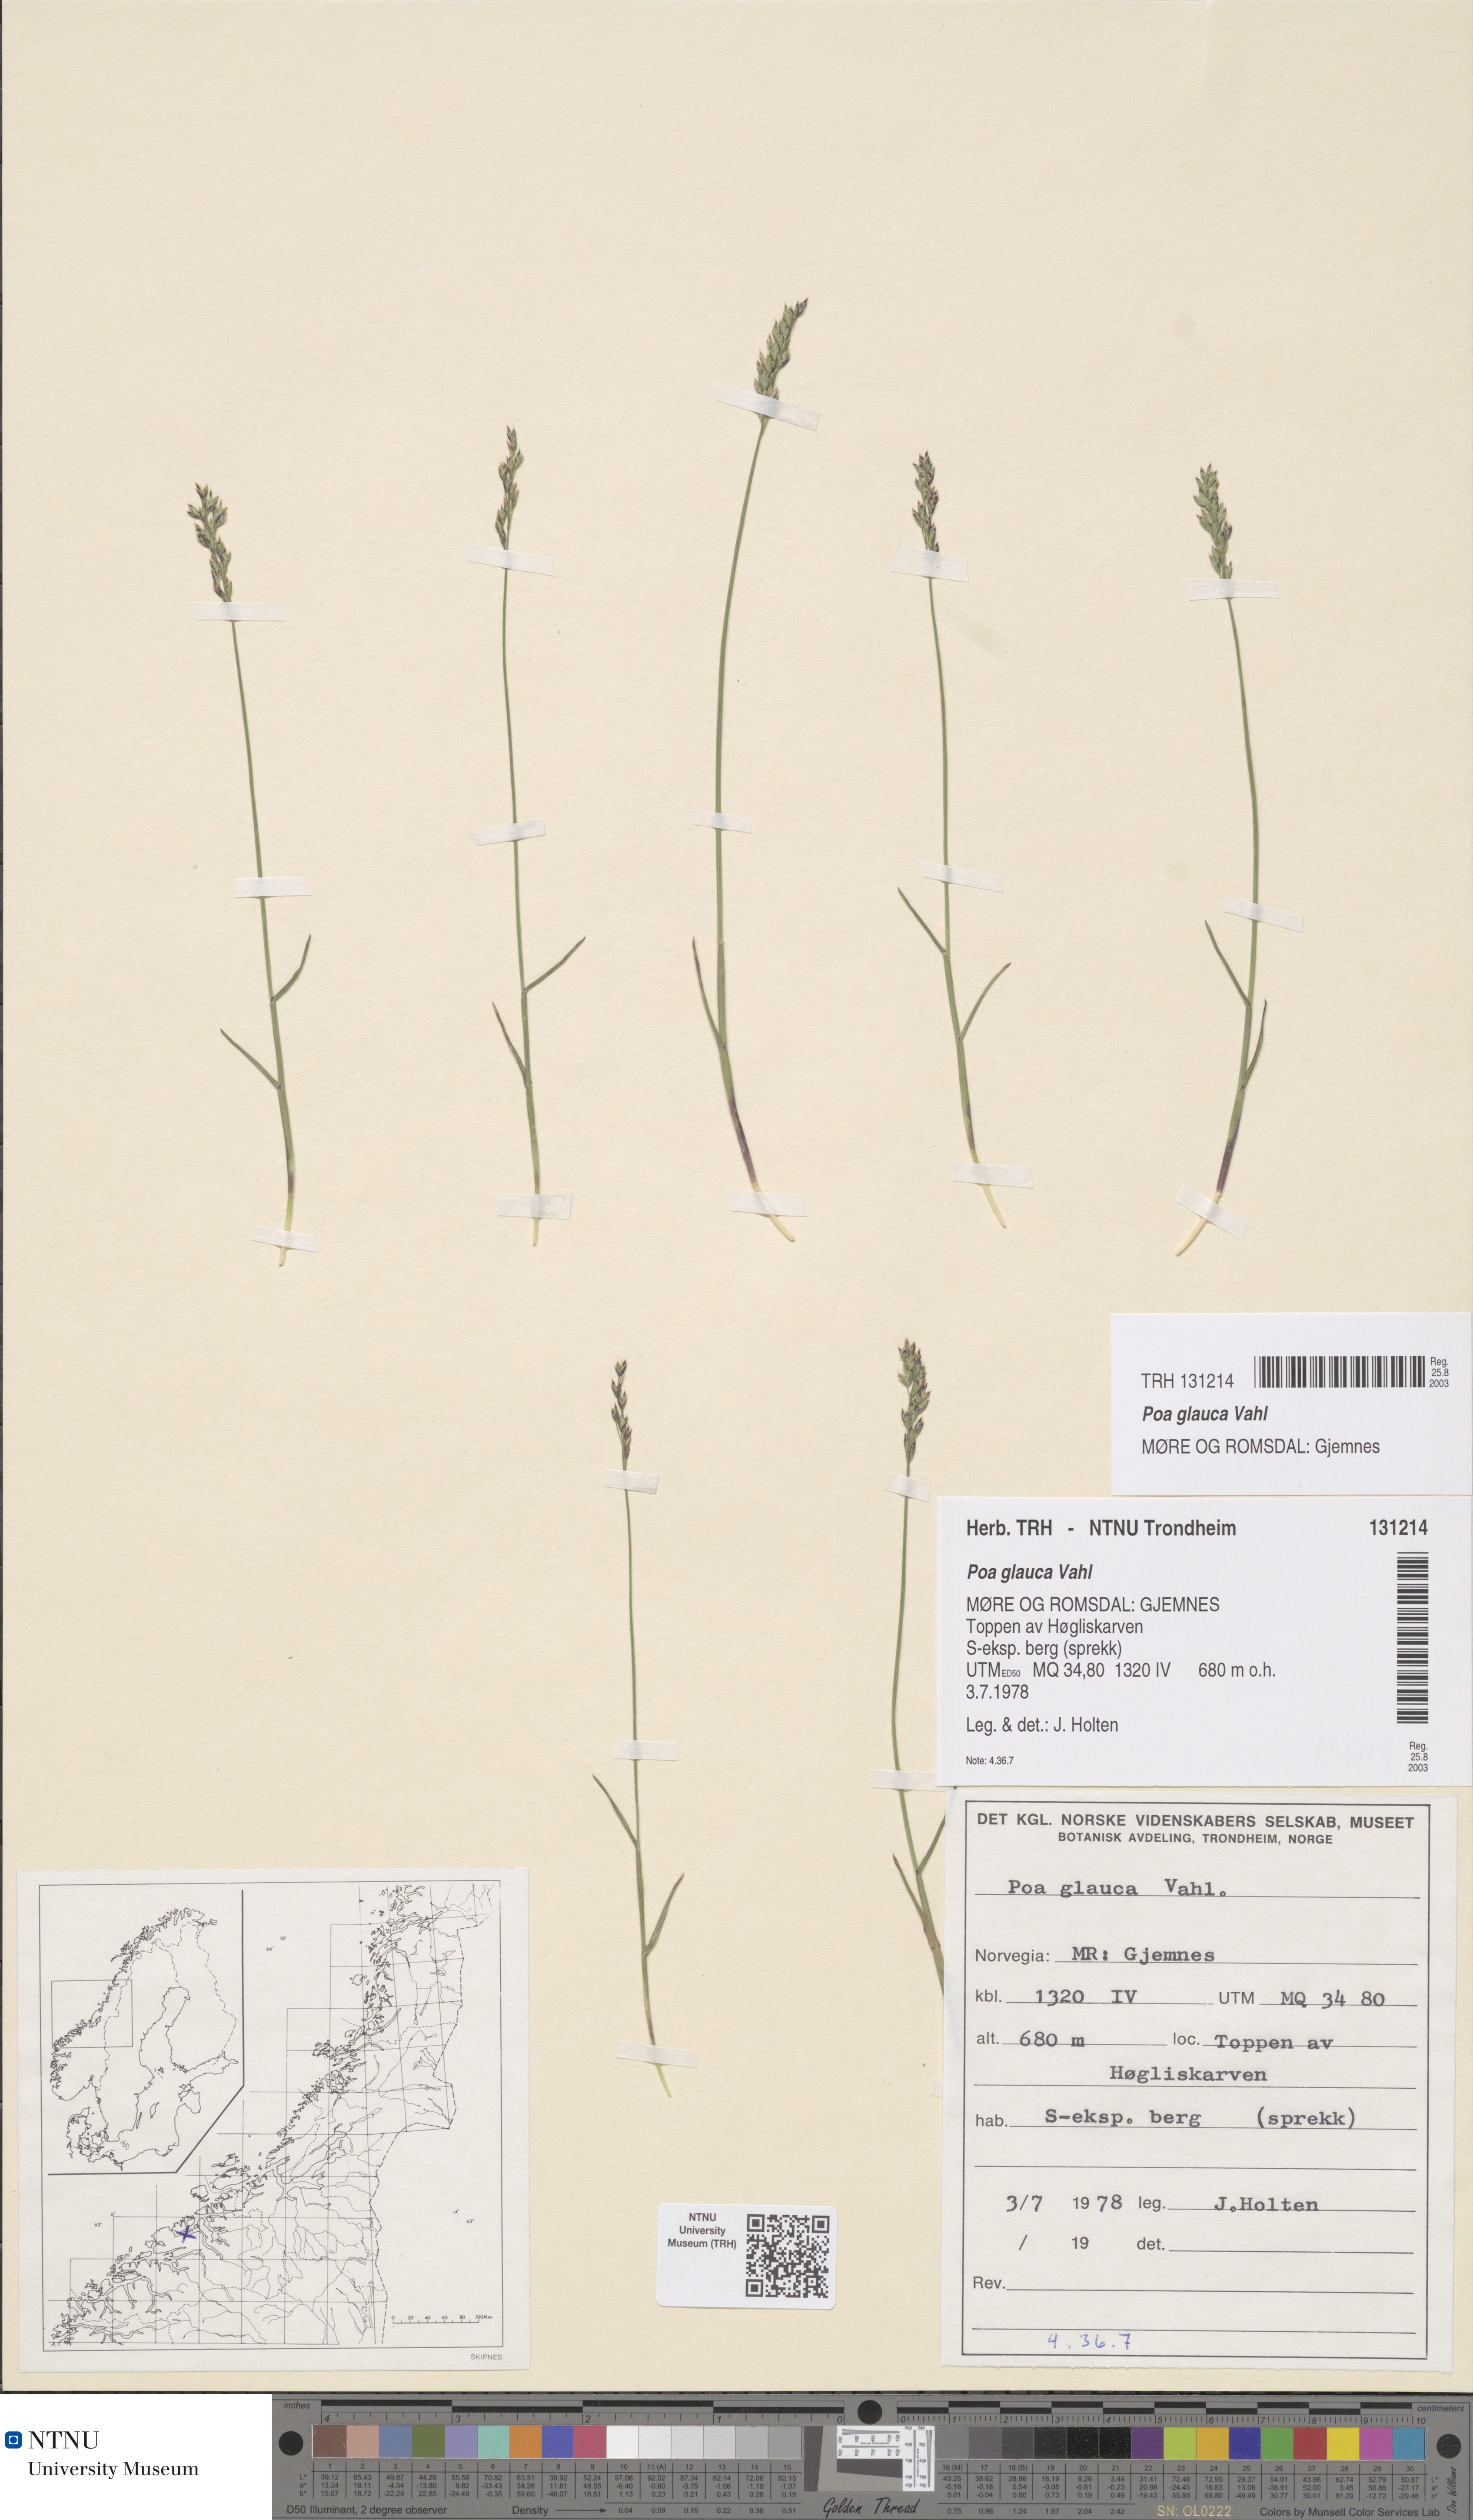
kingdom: Plantae
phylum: Tracheophyta
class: Liliopsida
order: Poales
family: Poaceae
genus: Poa
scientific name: Poa glauca
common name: Glaucous bluegrass
